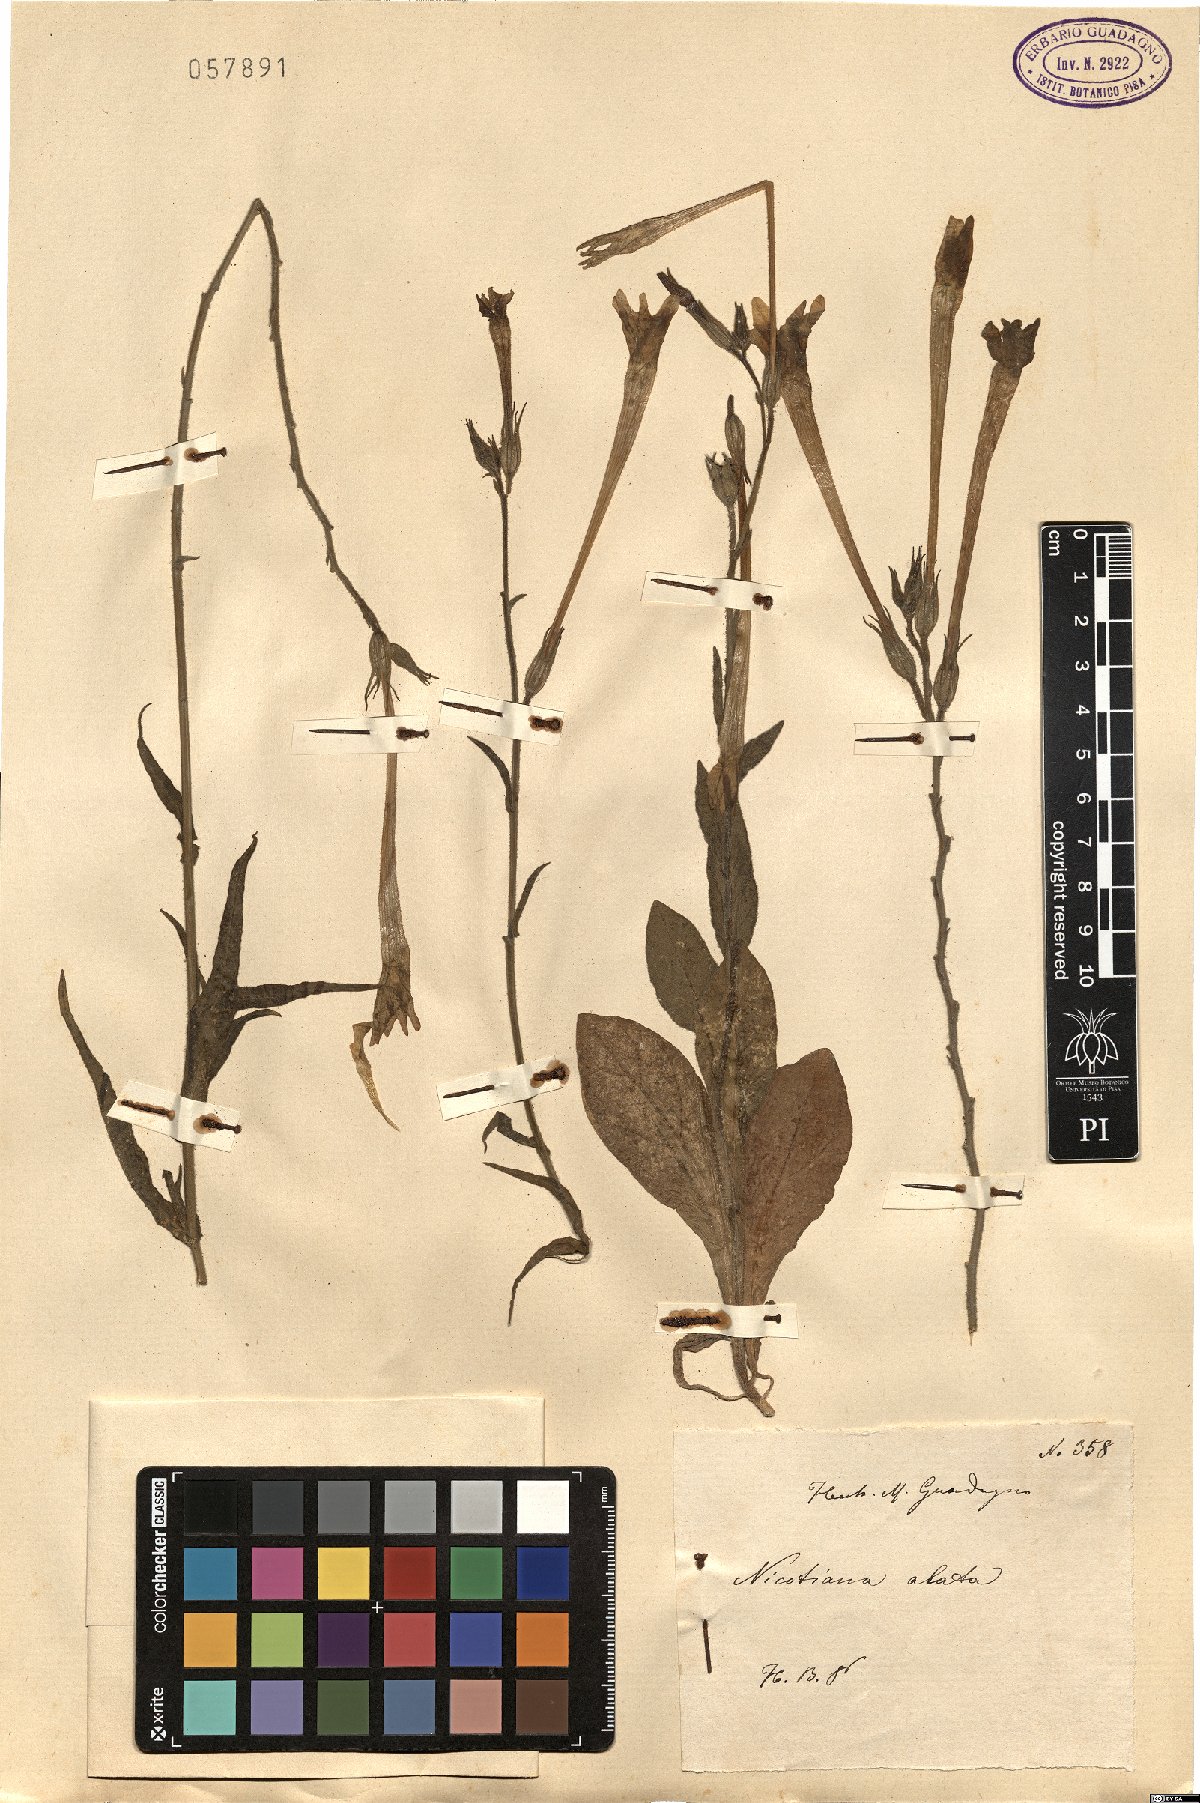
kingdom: Plantae
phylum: Tracheophyta
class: Magnoliopsida
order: Solanales
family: Solanaceae
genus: Nicotiana
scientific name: Nicotiana alata
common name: Jasmine tobacco
